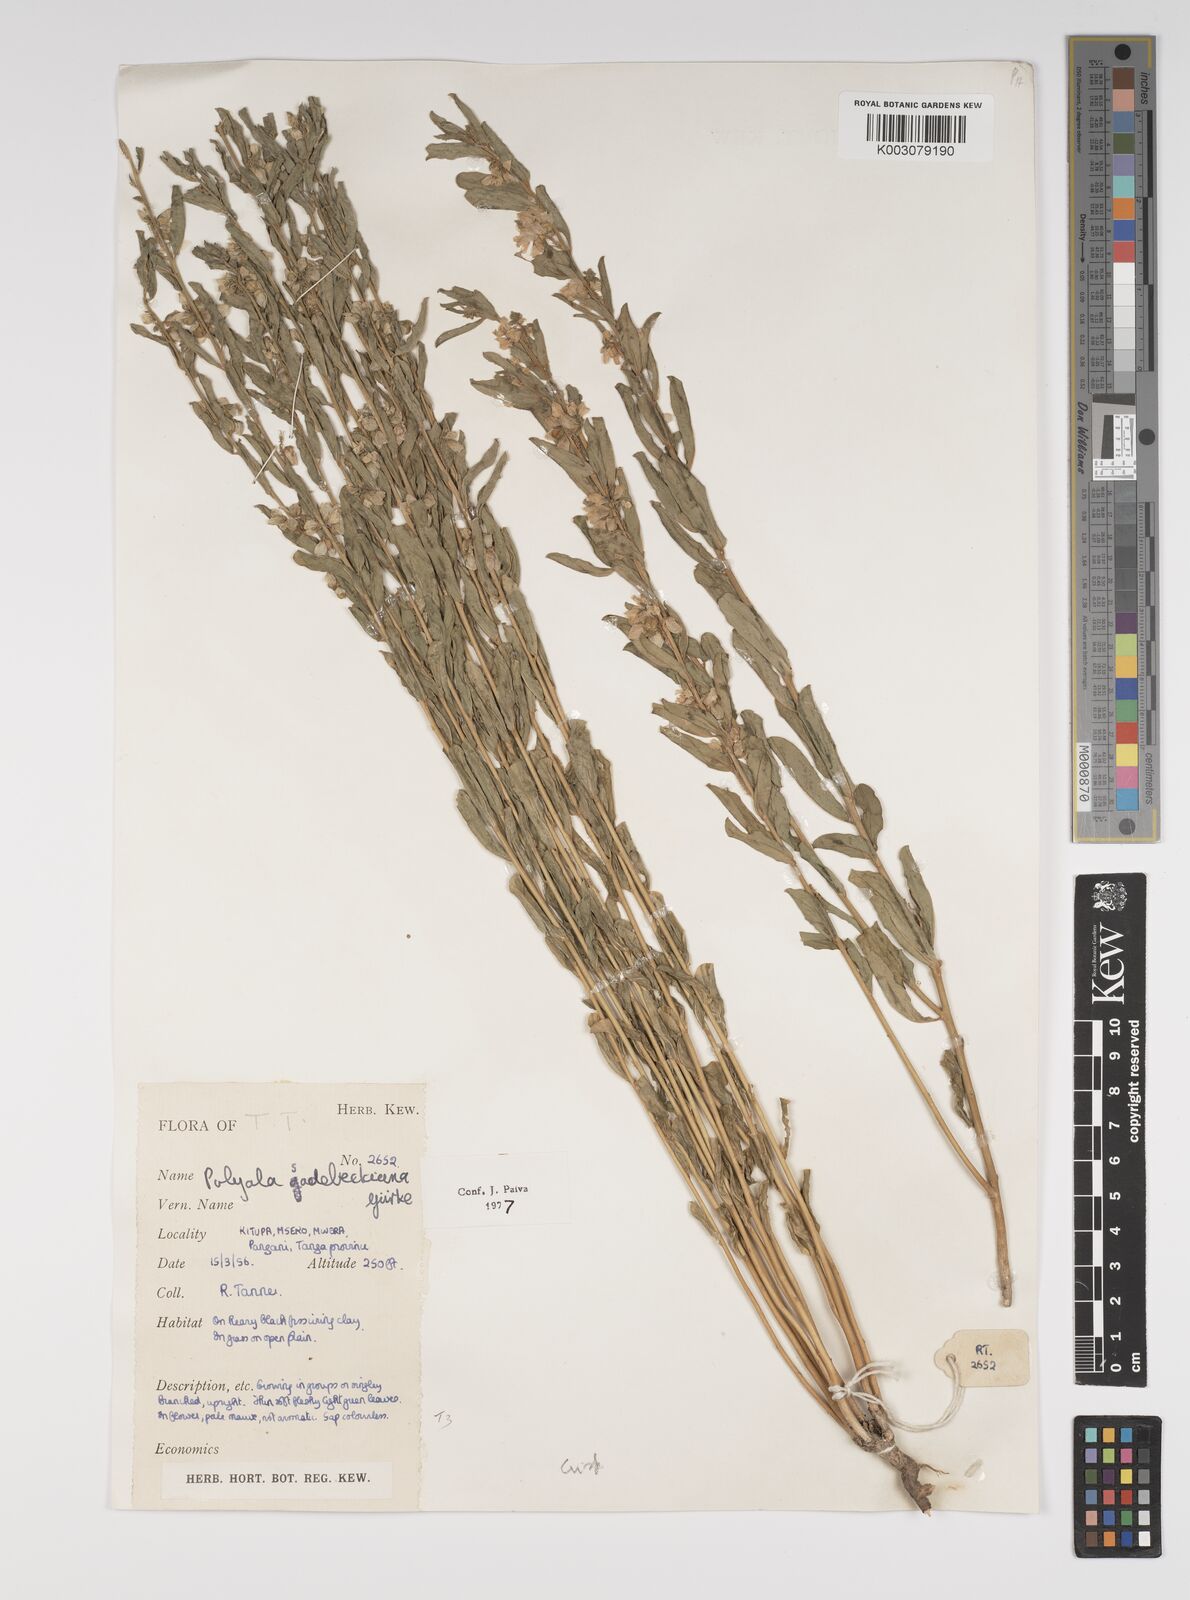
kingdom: Plantae
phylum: Tracheophyta
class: Magnoliopsida
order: Fabales
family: Polygalaceae
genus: Polygala
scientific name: Polygala sadebeckiana
